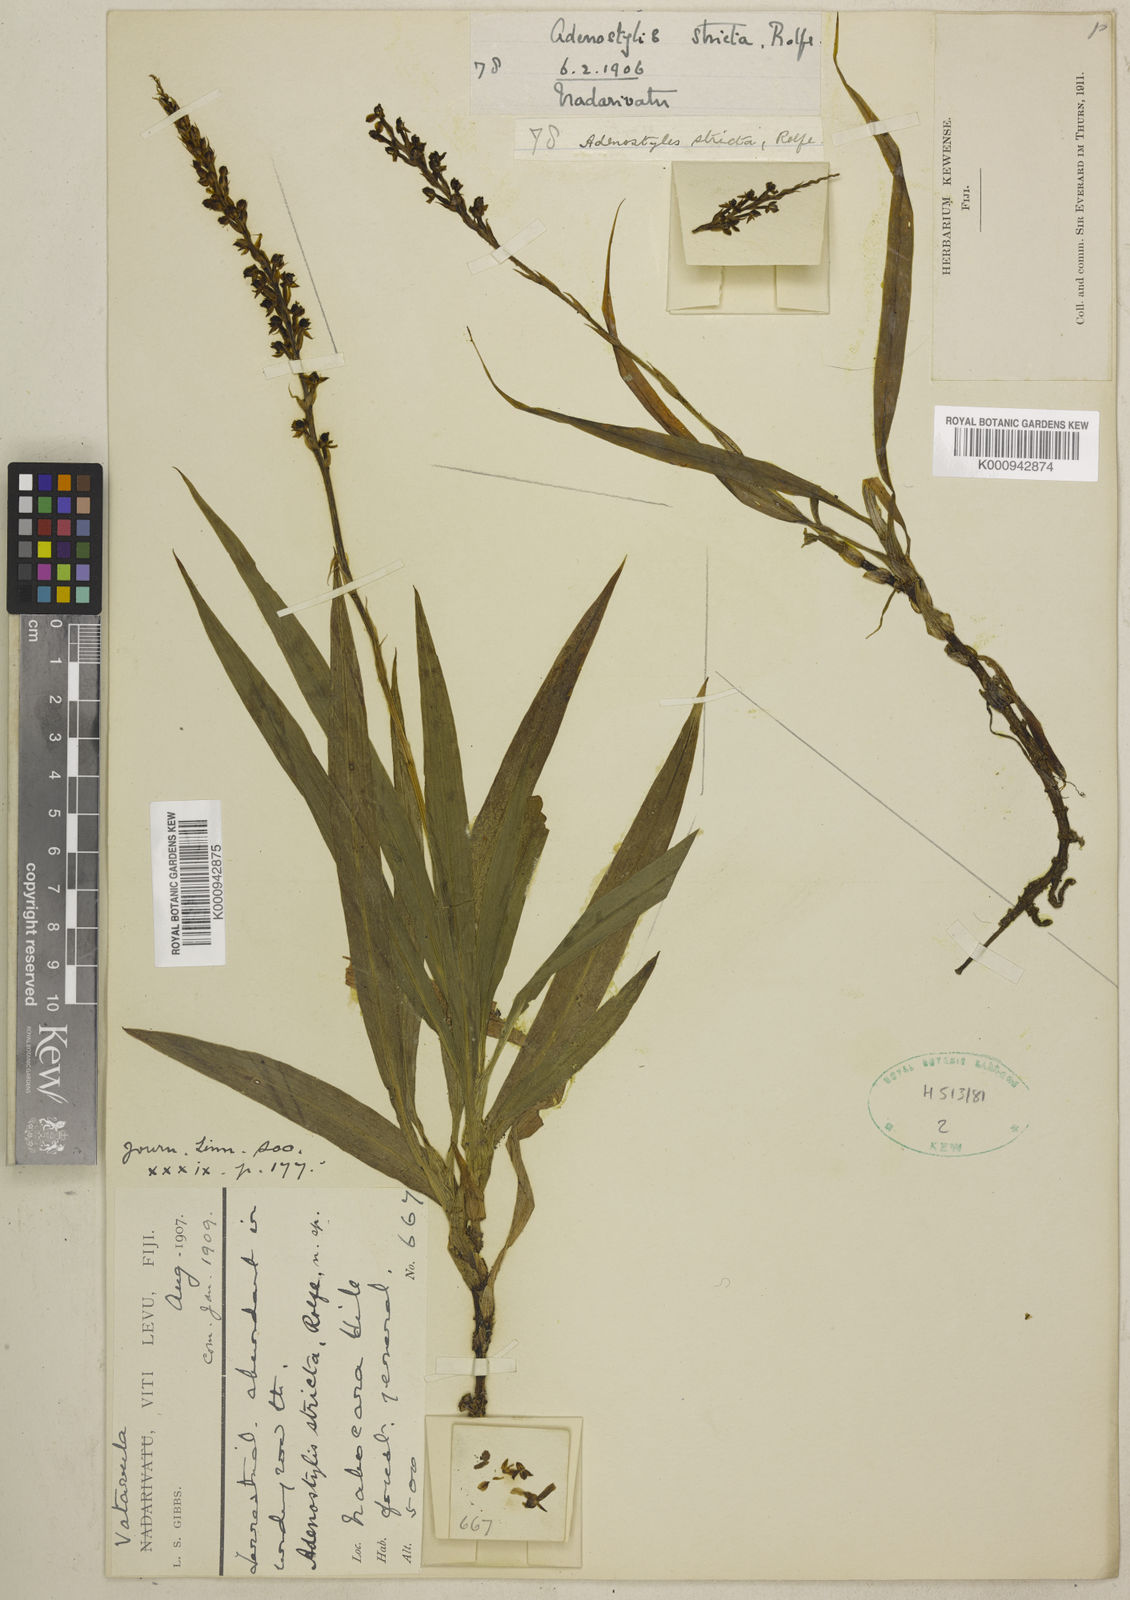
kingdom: Plantae
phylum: Tracheophyta
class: Liliopsida
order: Asparagales
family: Orchidaceae
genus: Hetaeria
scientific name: Hetaeria
